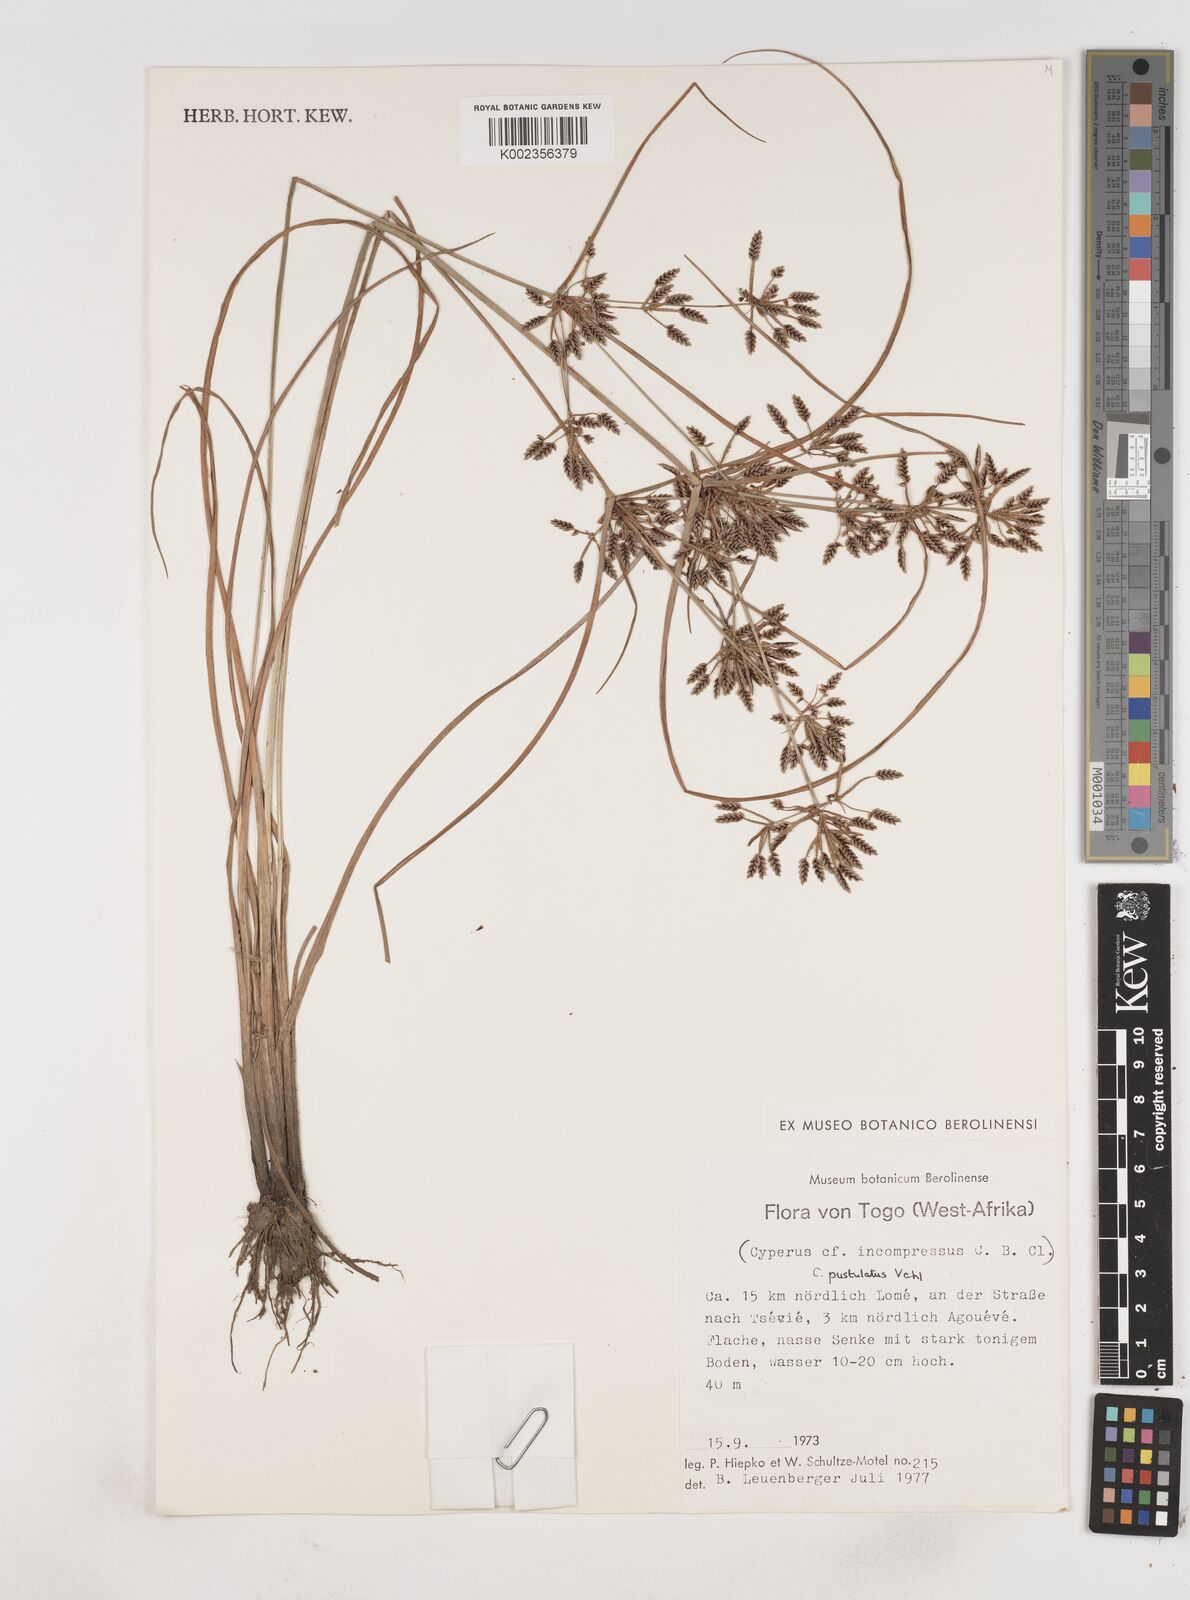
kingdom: Plantae
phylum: Tracheophyta
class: Liliopsida
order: Poales
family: Cyperaceae
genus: Cyperus
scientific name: Cyperus pustulatus
